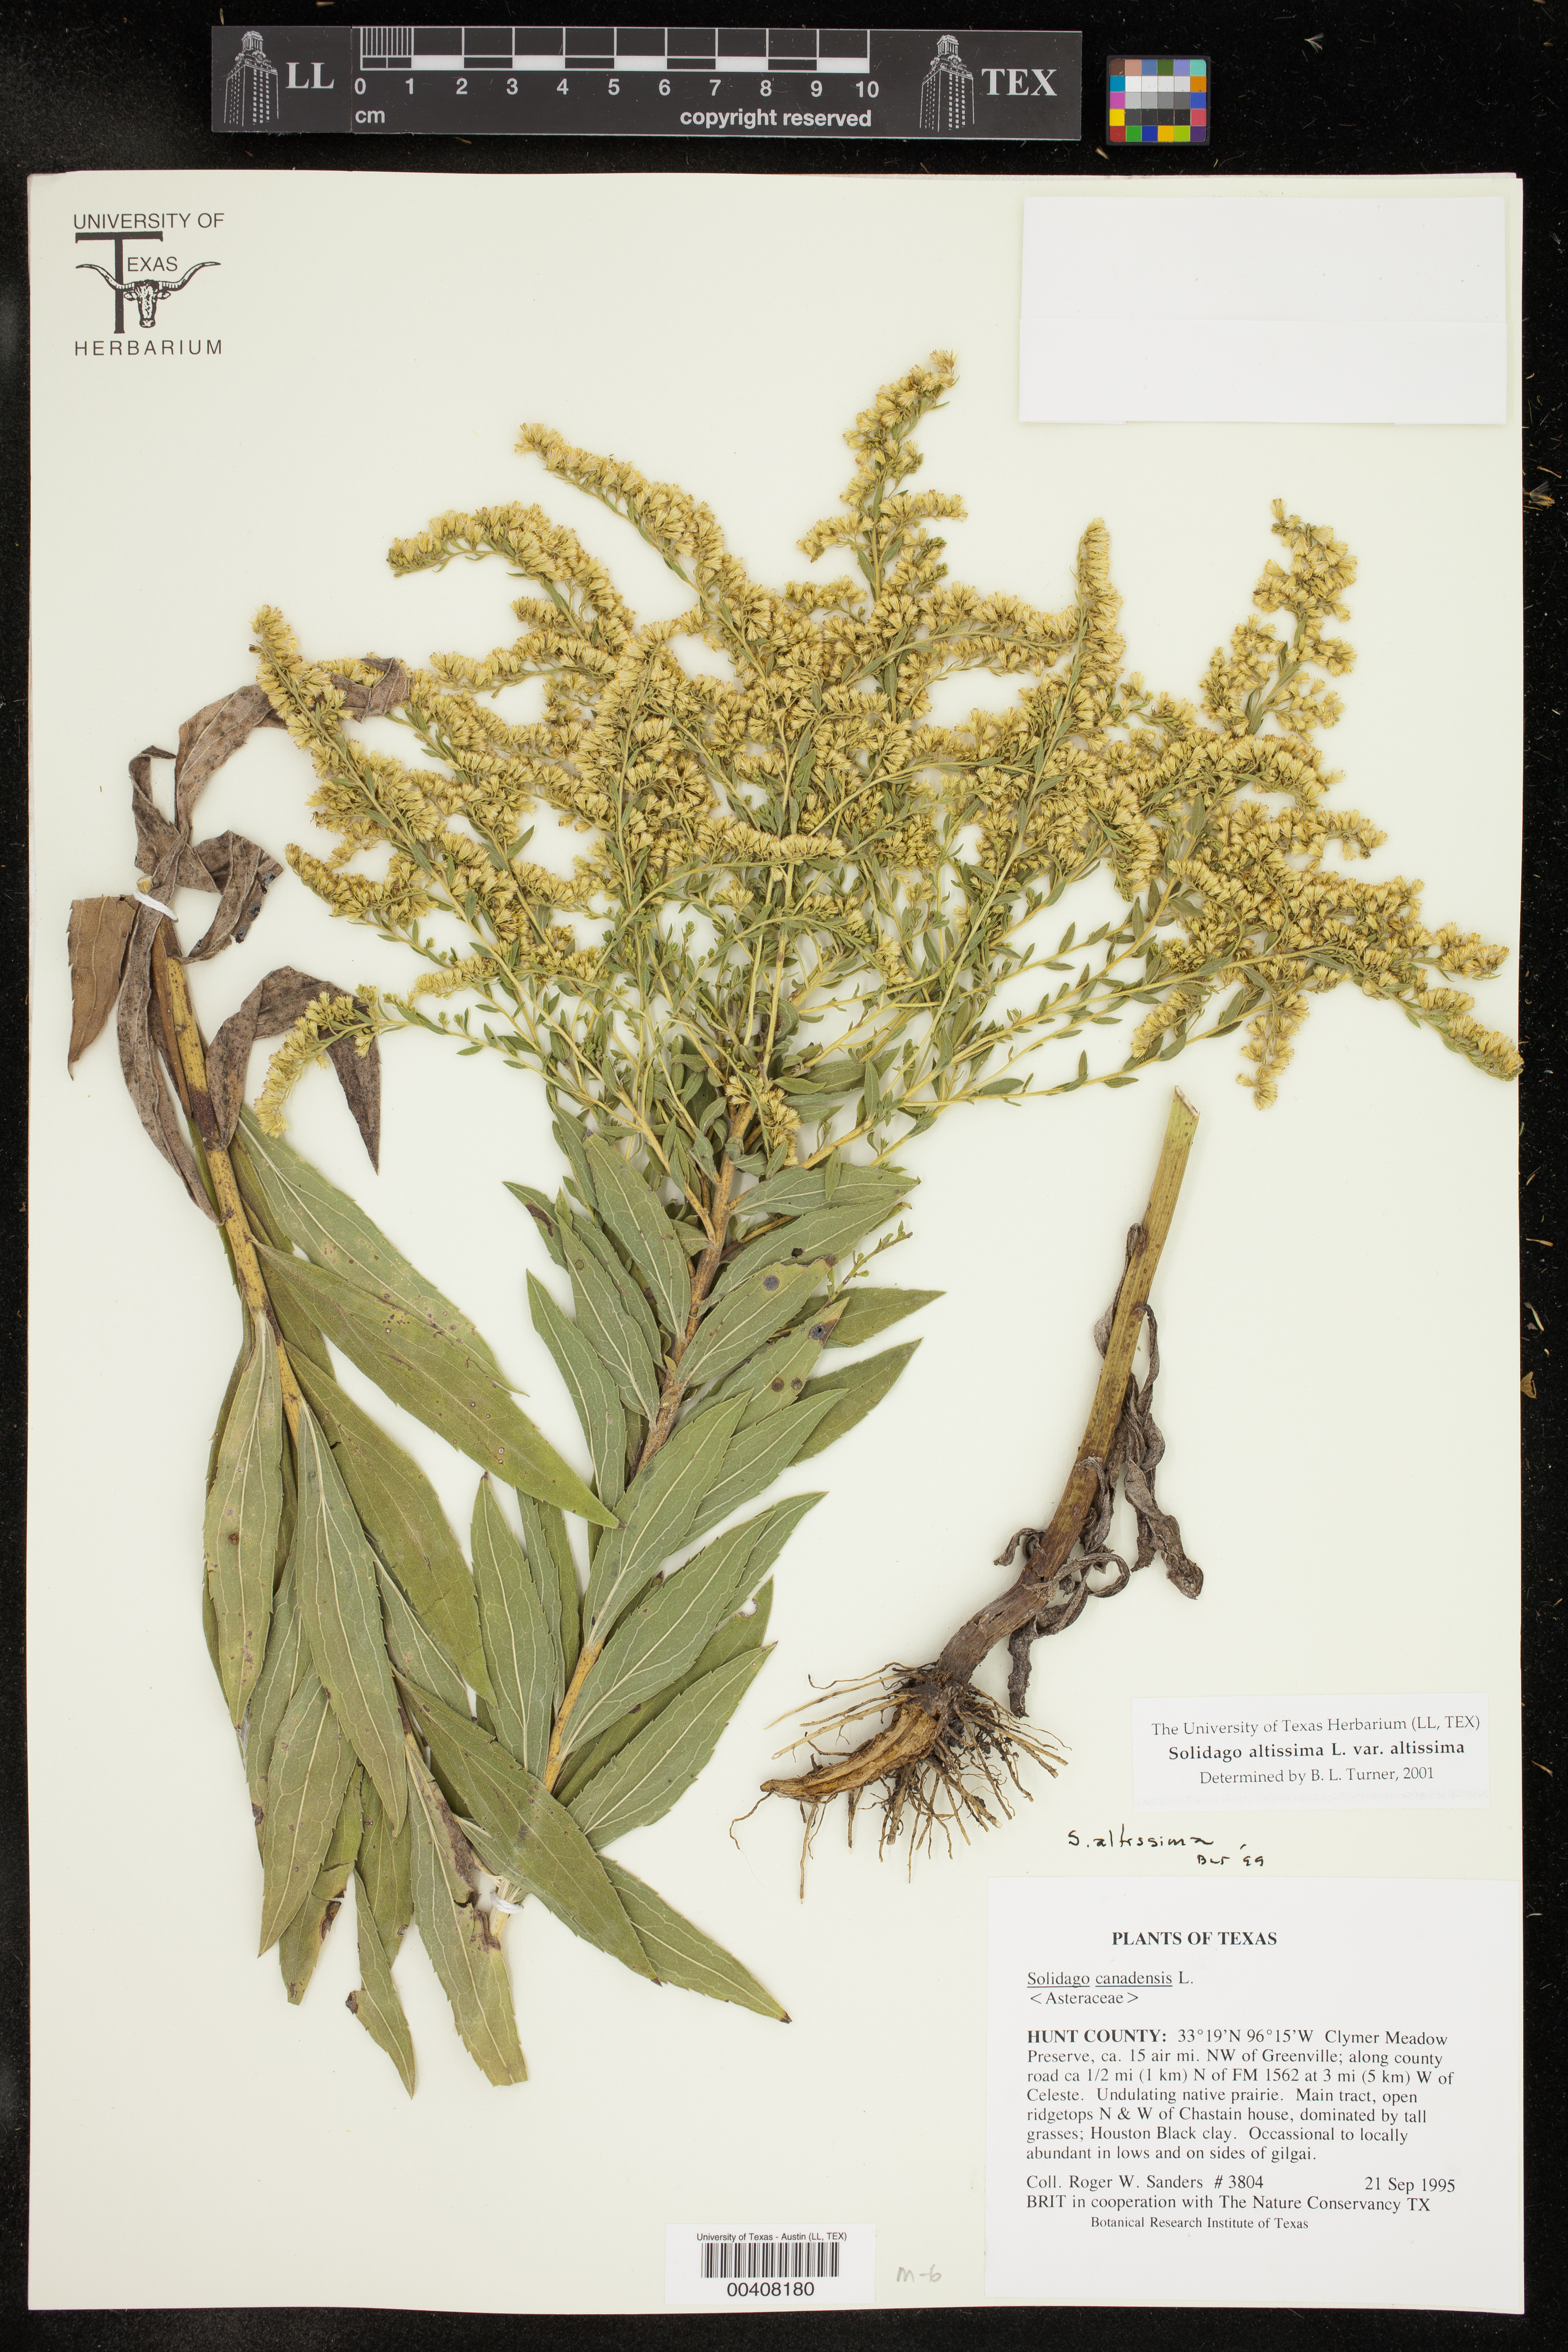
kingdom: Plantae
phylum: Tracheophyta
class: Magnoliopsida
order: Asterales
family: Asteraceae
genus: Solidago
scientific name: Solidago altissima
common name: Late goldenrod
